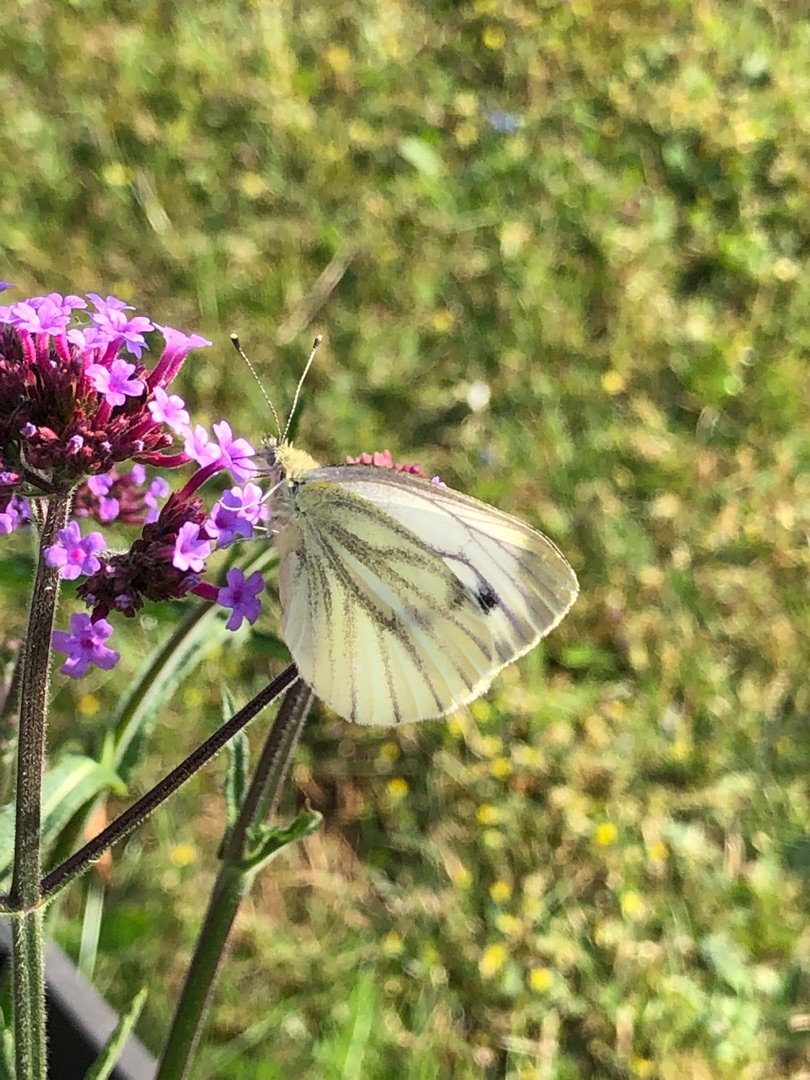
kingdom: Animalia
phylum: Arthropoda
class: Insecta
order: Lepidoptera
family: Pieridae
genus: Pieris
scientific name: Pieris napi
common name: Grønåret kålsommerfugl
